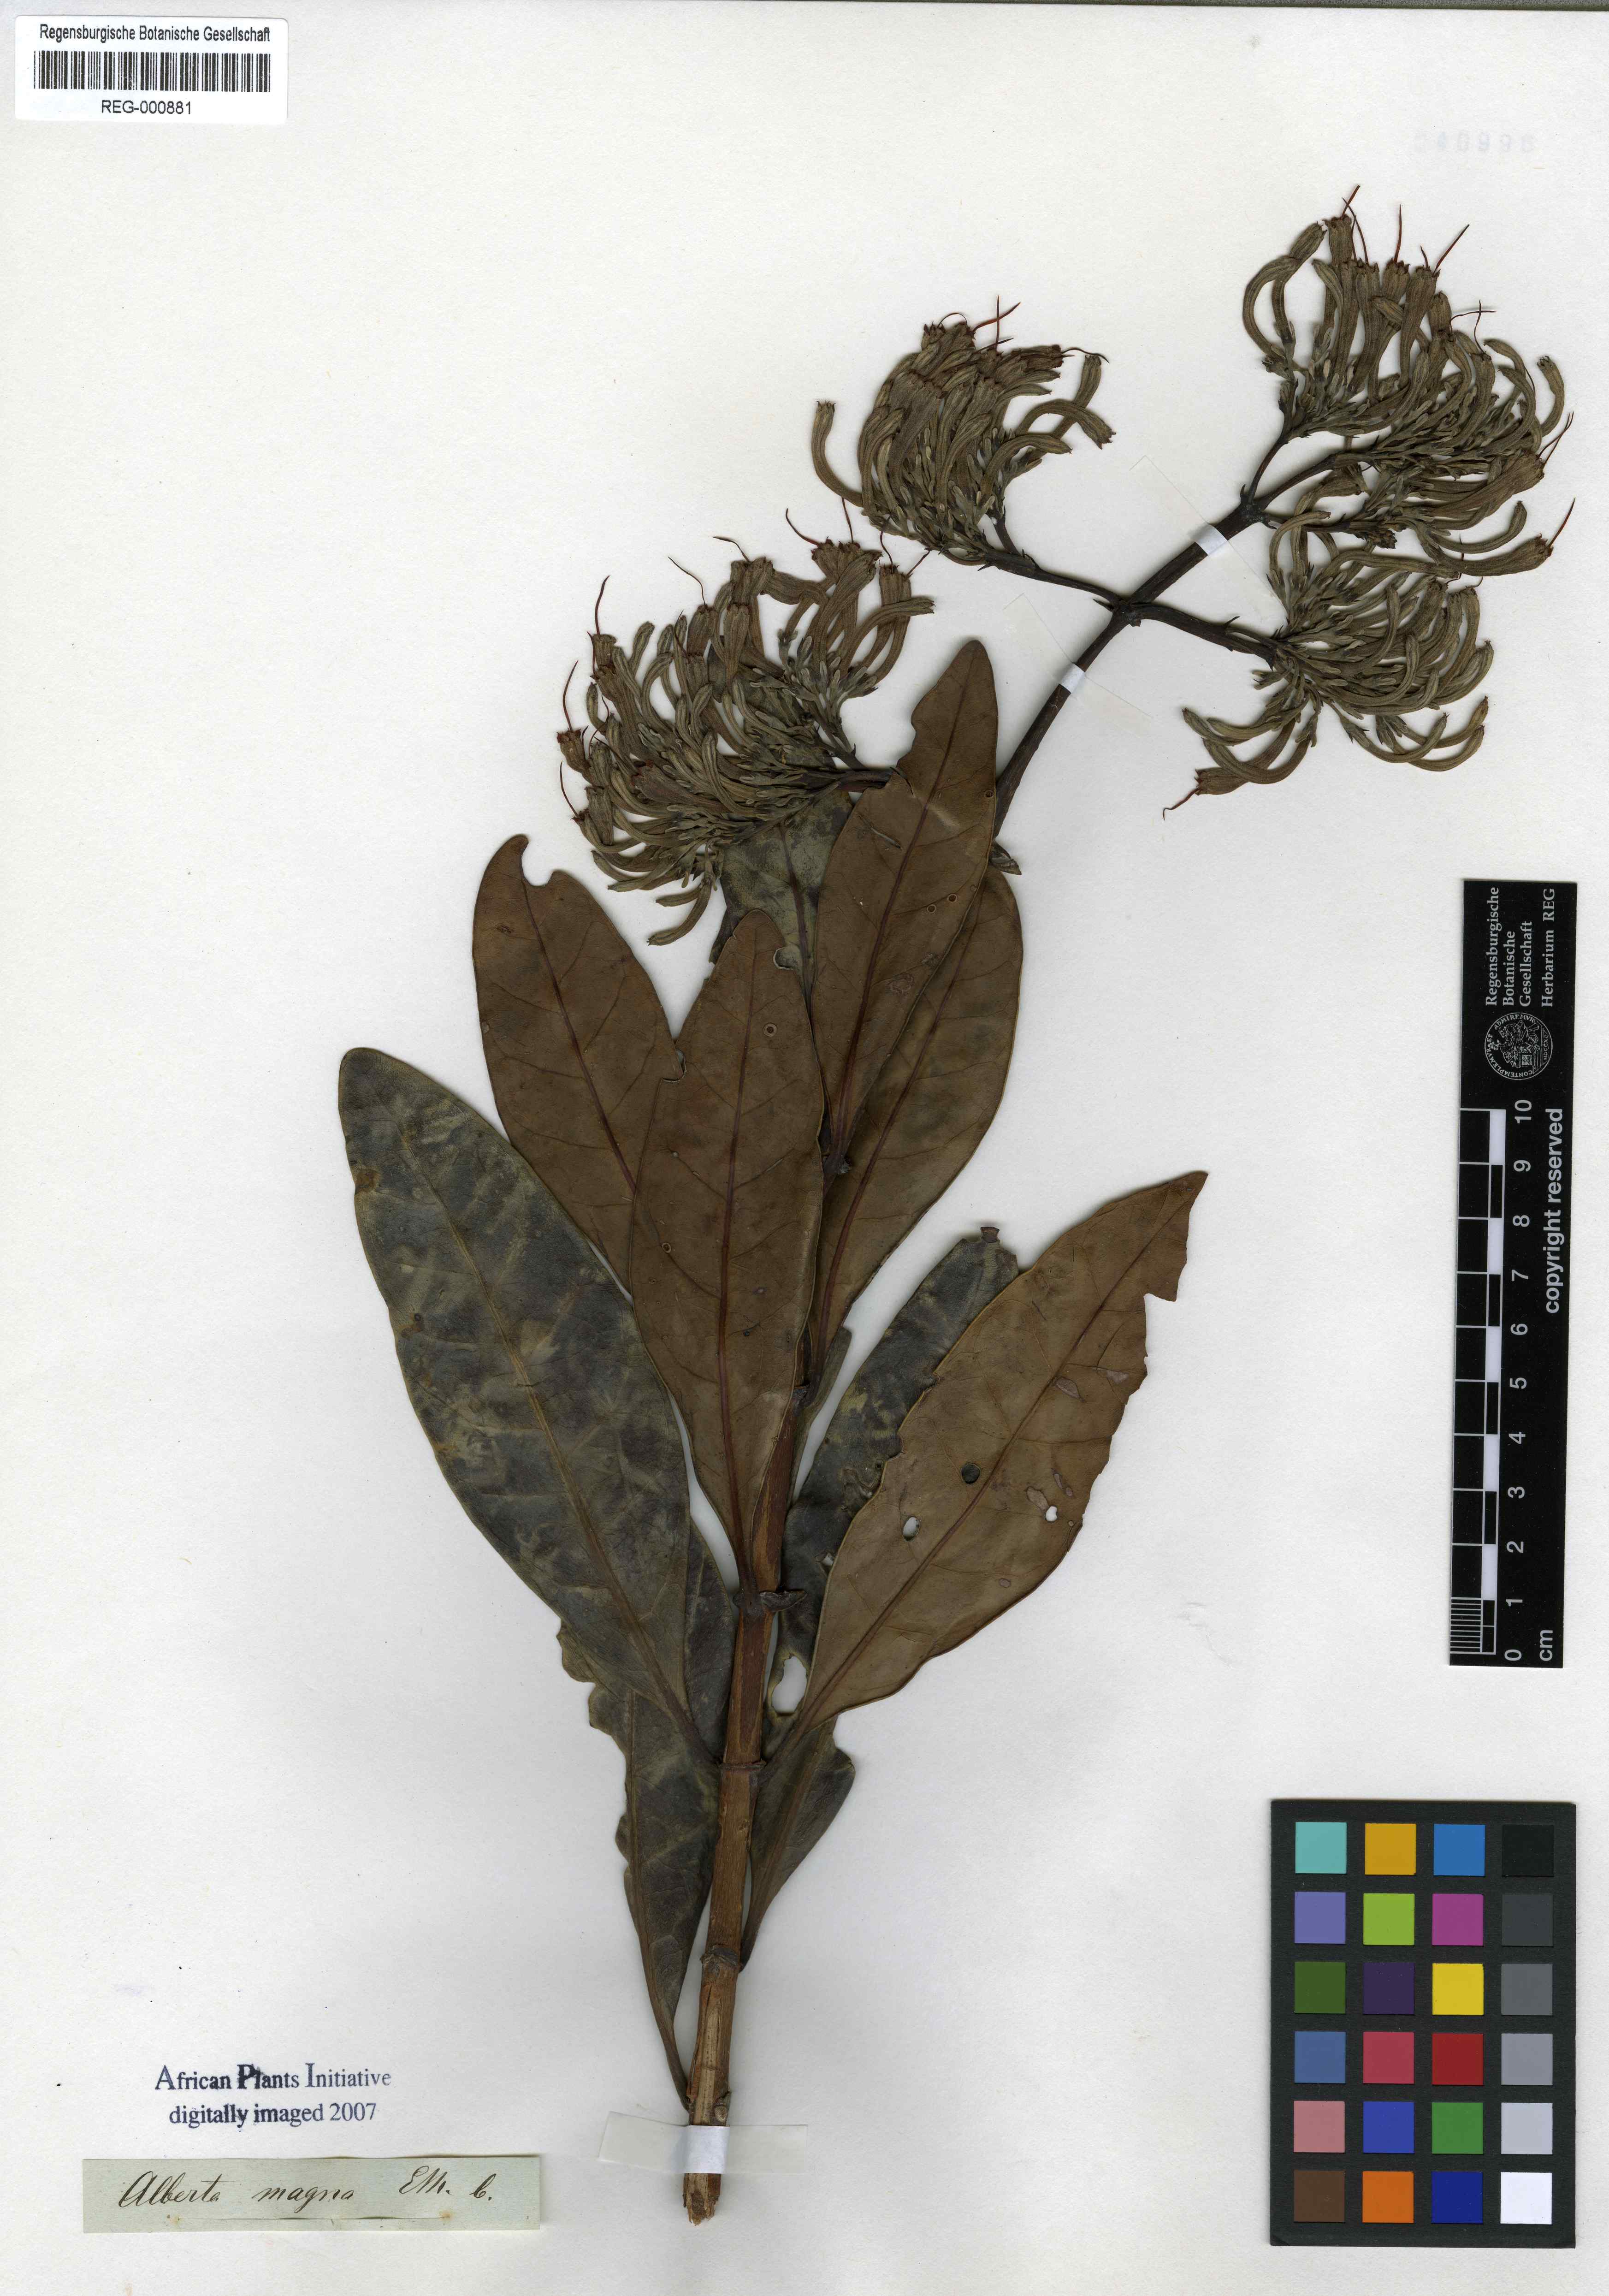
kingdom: Plantae
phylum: Tracheophyta
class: Magnoliopsida
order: Gentianales
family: Rubiaceae
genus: Alberta
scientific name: Alberta magna
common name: Magnificent-flame
